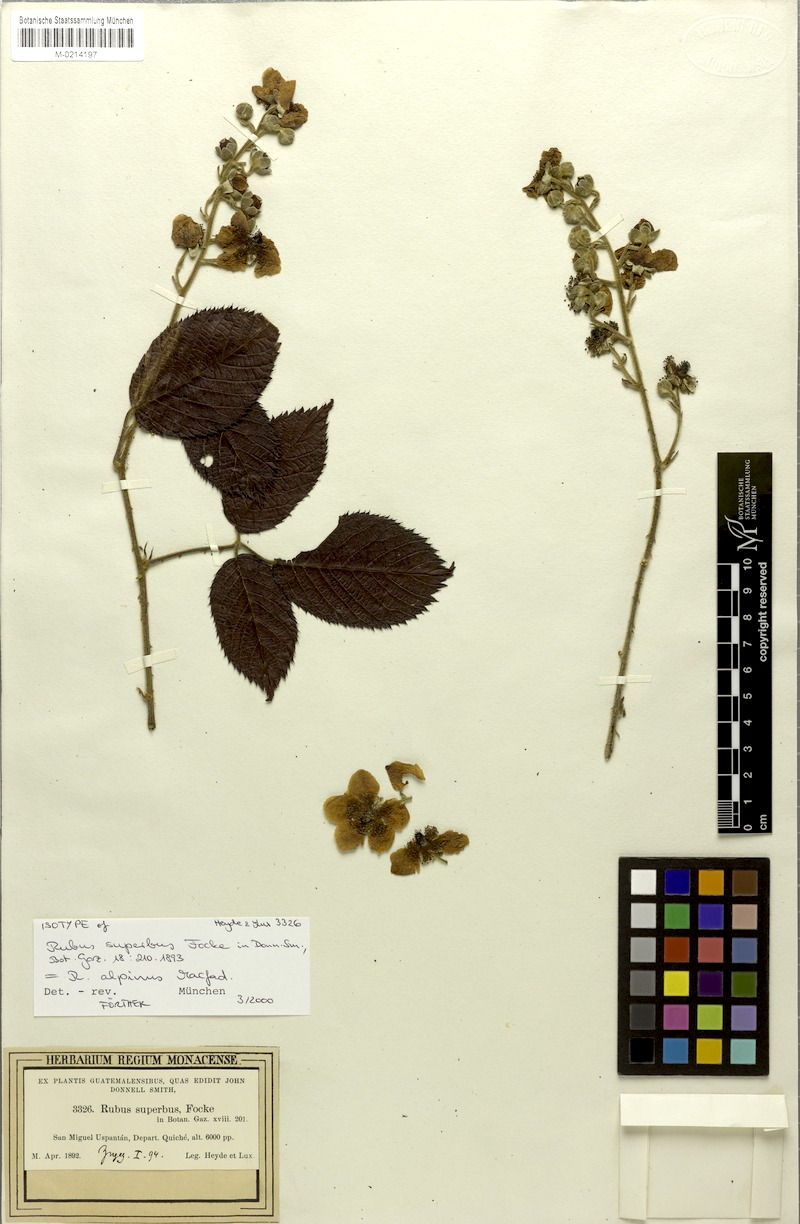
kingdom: Plantae
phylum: Tracheophyta
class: Magnoliopsida
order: Rosales
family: Rosaceae
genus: Rubus
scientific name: Rubus alpinus
